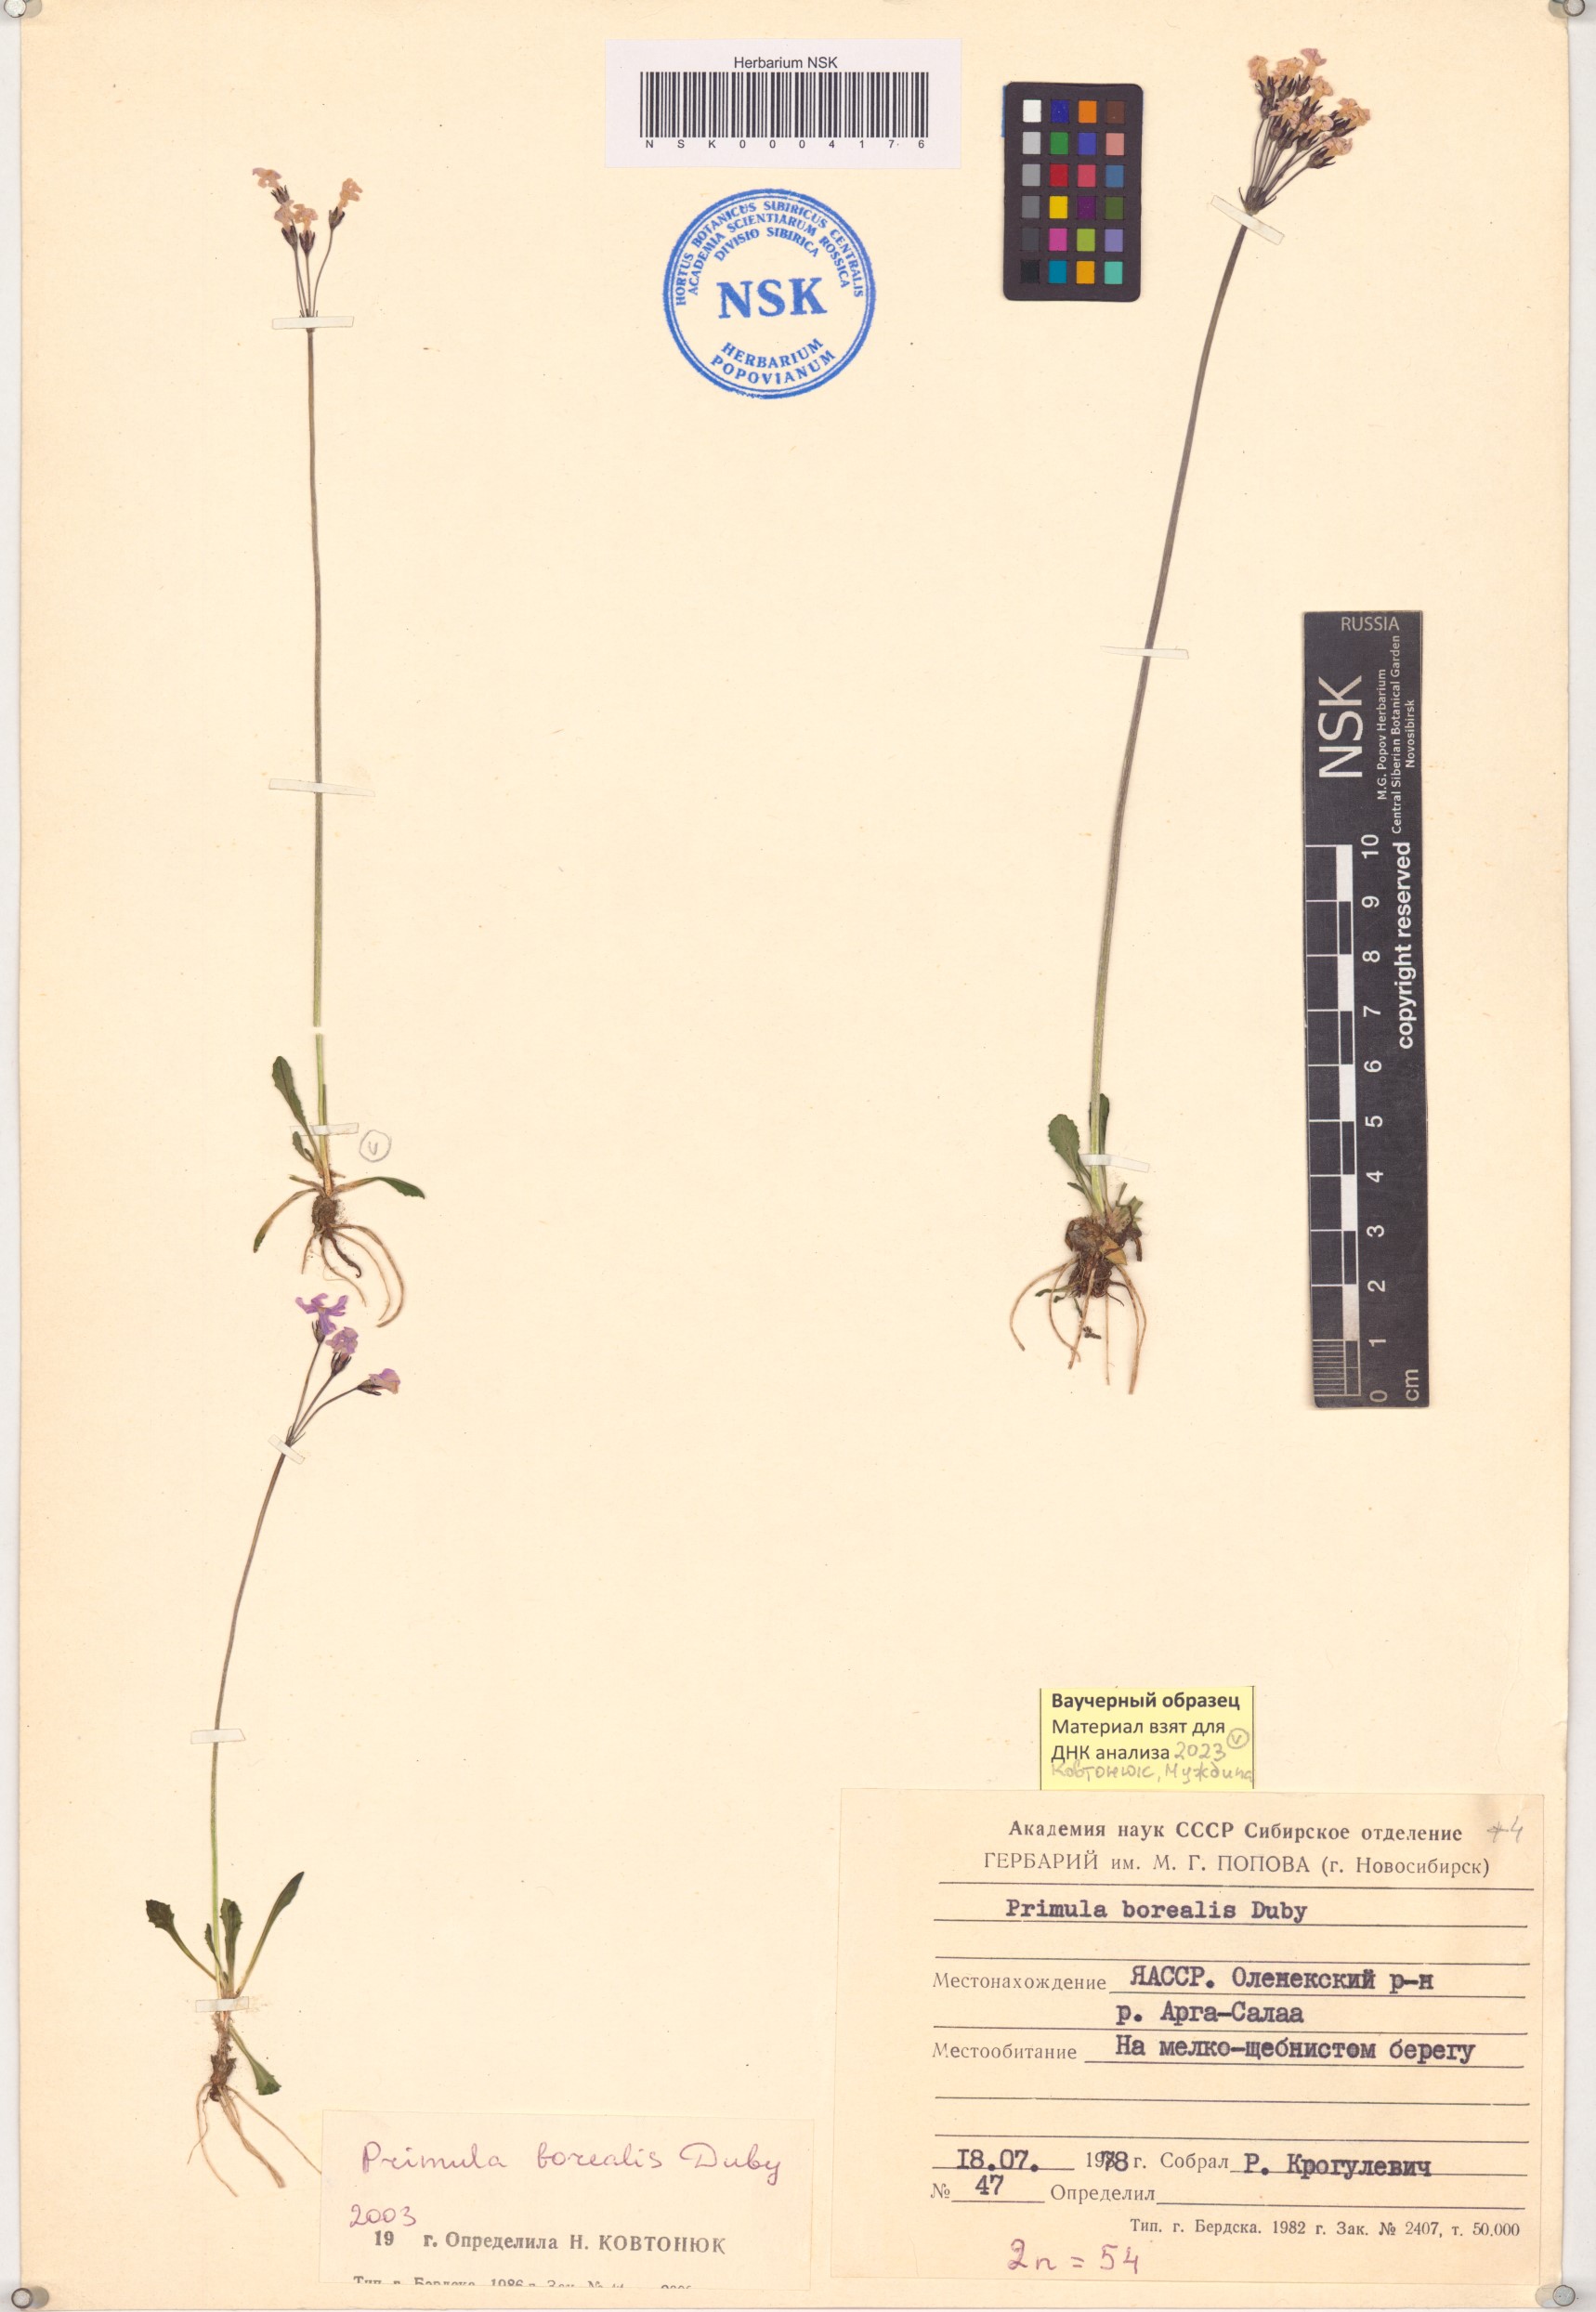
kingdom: Plantae
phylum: Tracheophyta
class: Magnoliopsida
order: Ericales
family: Primulaceae
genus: Primula
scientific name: Primula borealis
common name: Northern primrose
